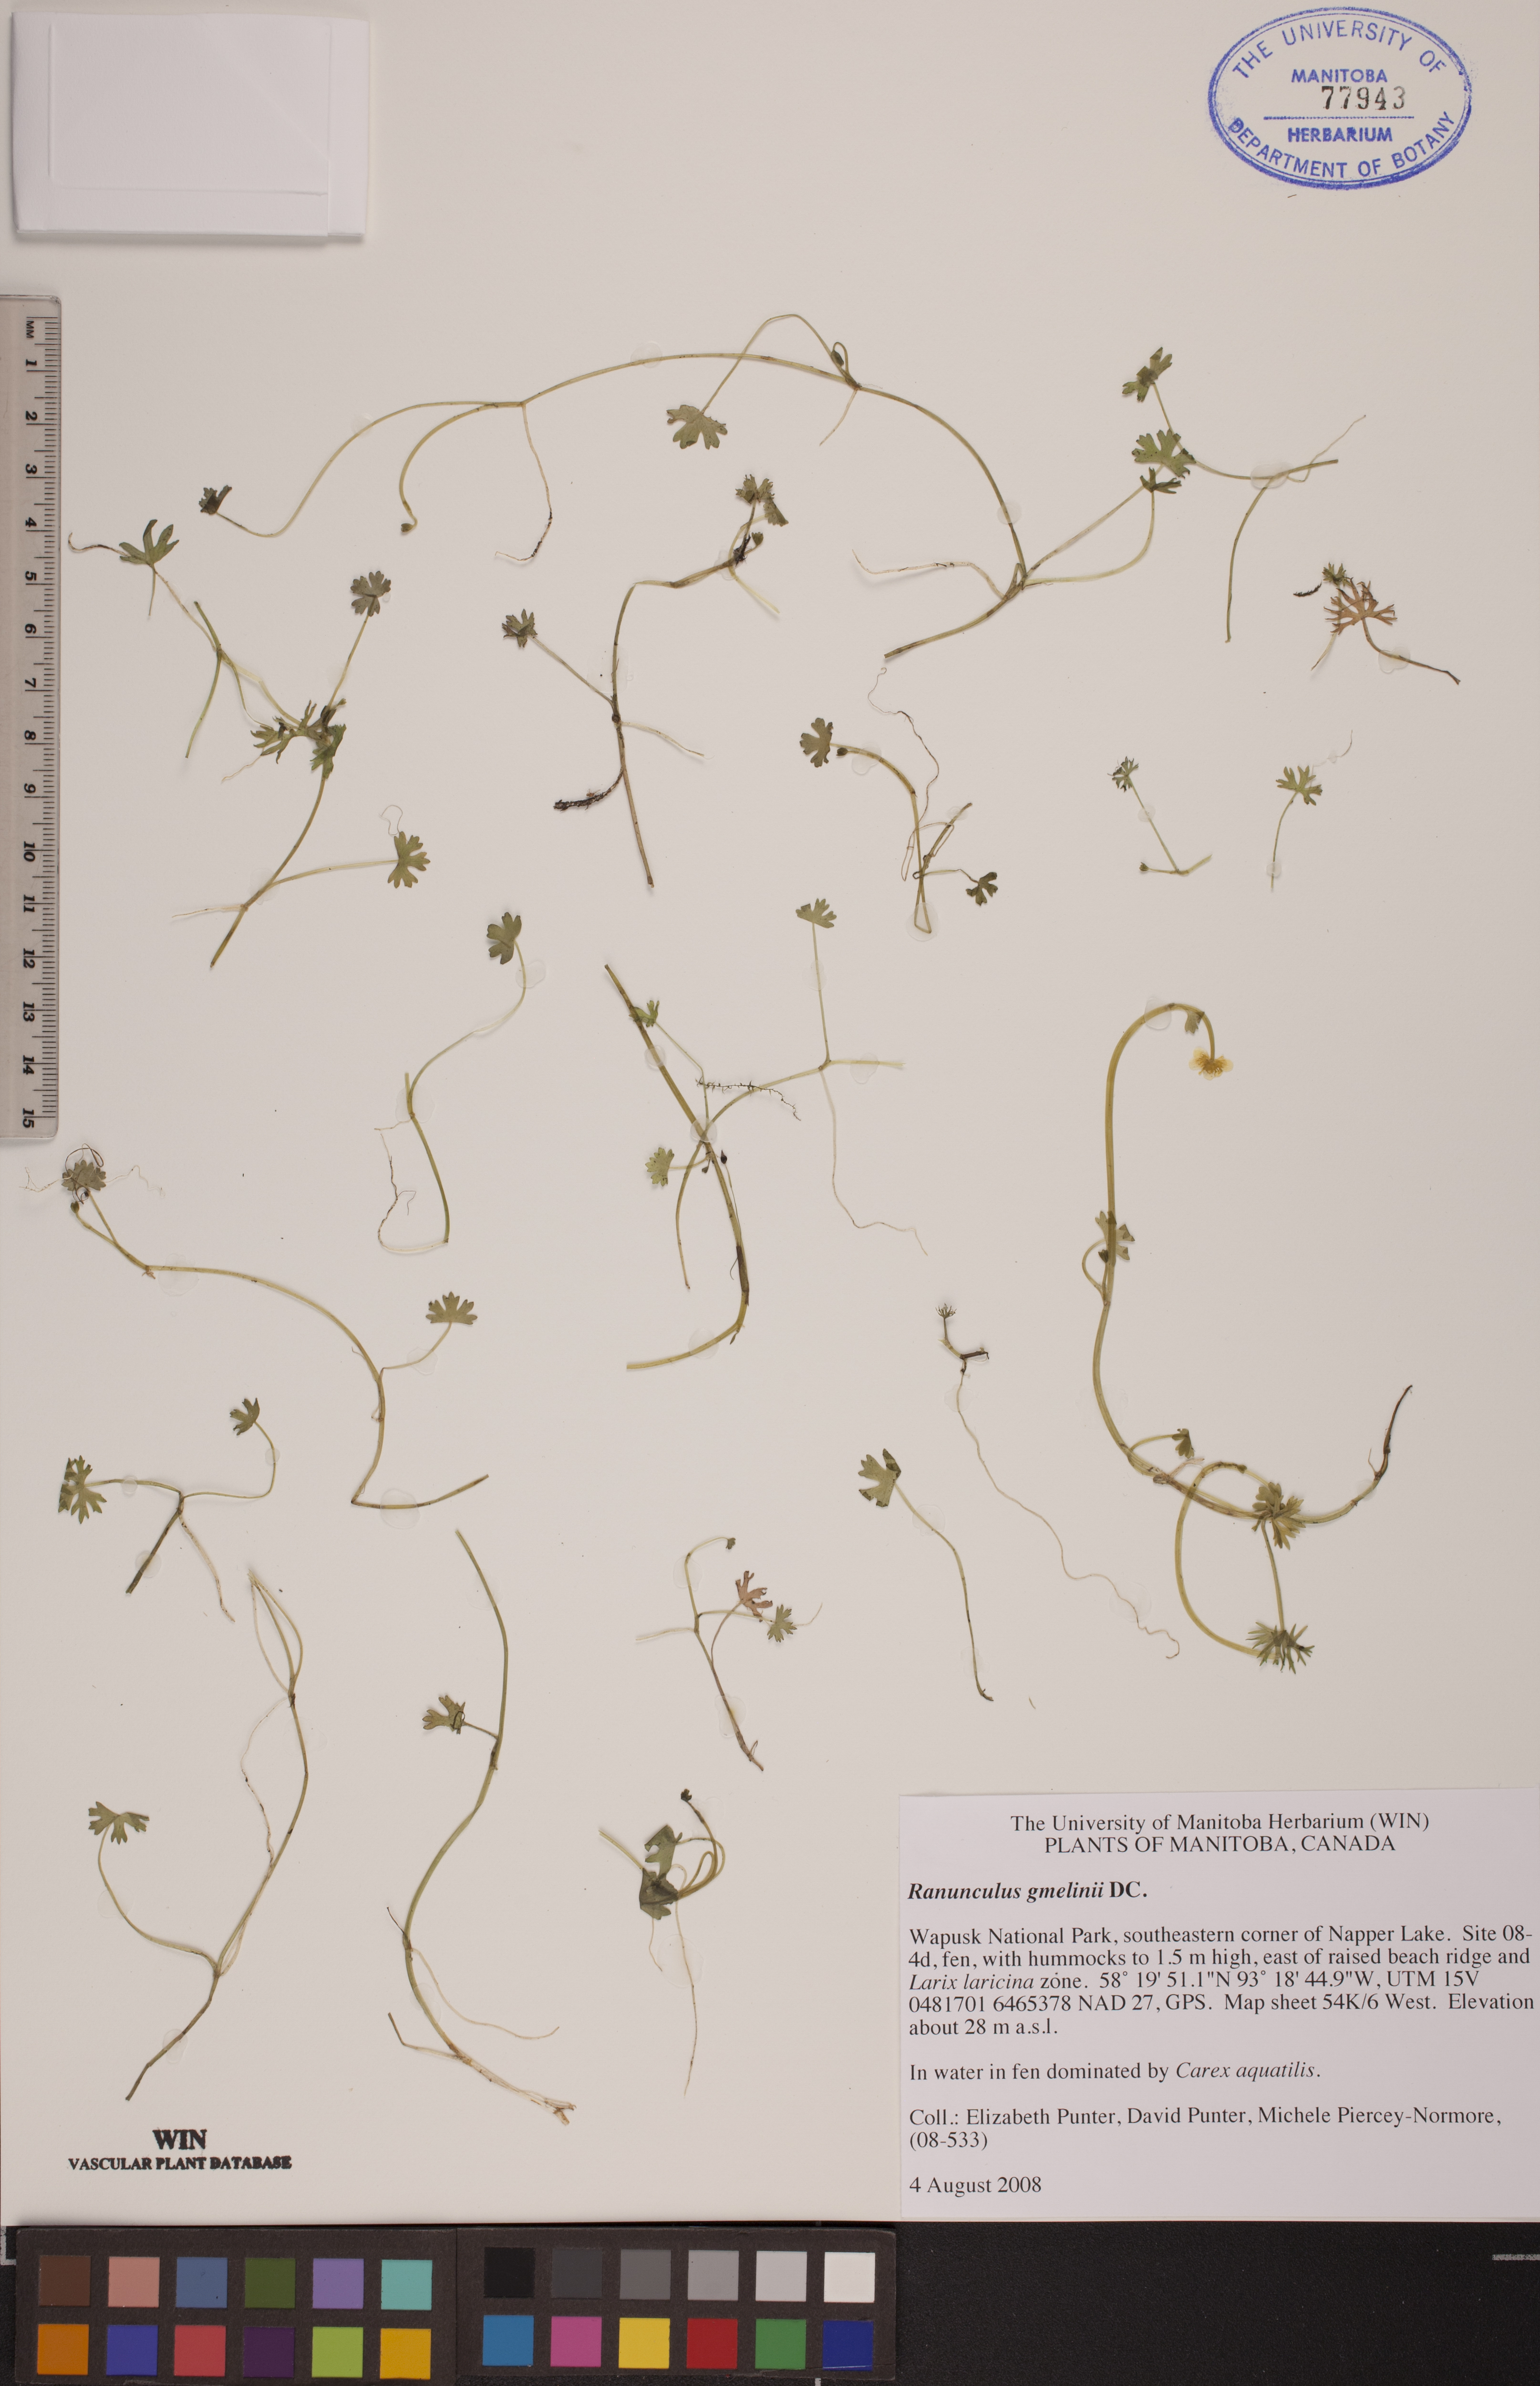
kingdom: Plantae
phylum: Tracheophyta
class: Magnoliopsida
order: Ranunculales
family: Ranunculaceae
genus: Ranunculus
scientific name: Ranunculus gmelinii
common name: Gmelin's buttercup
